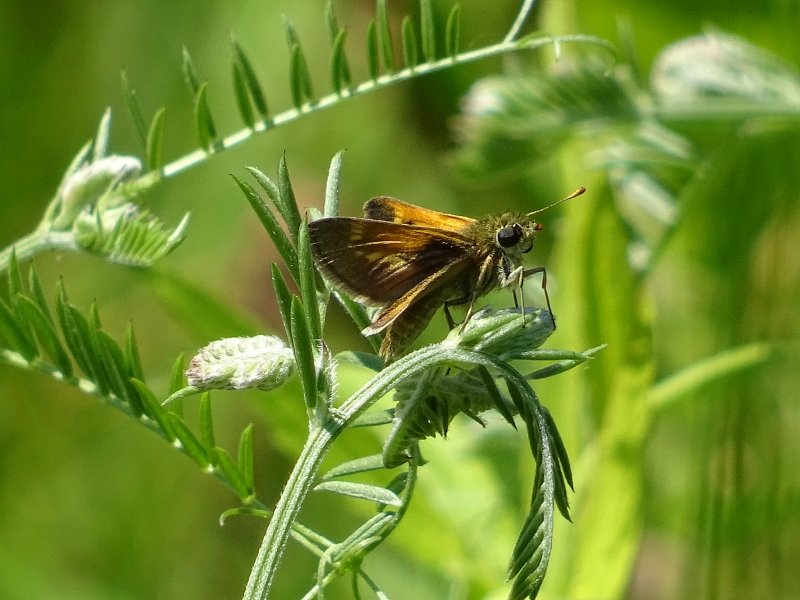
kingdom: Animalia
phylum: Arthropoda
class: Insecta
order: Lepidoptera
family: Hesperiidae
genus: Polites
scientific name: Polites themistocles
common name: Tawny-edged Skipper
